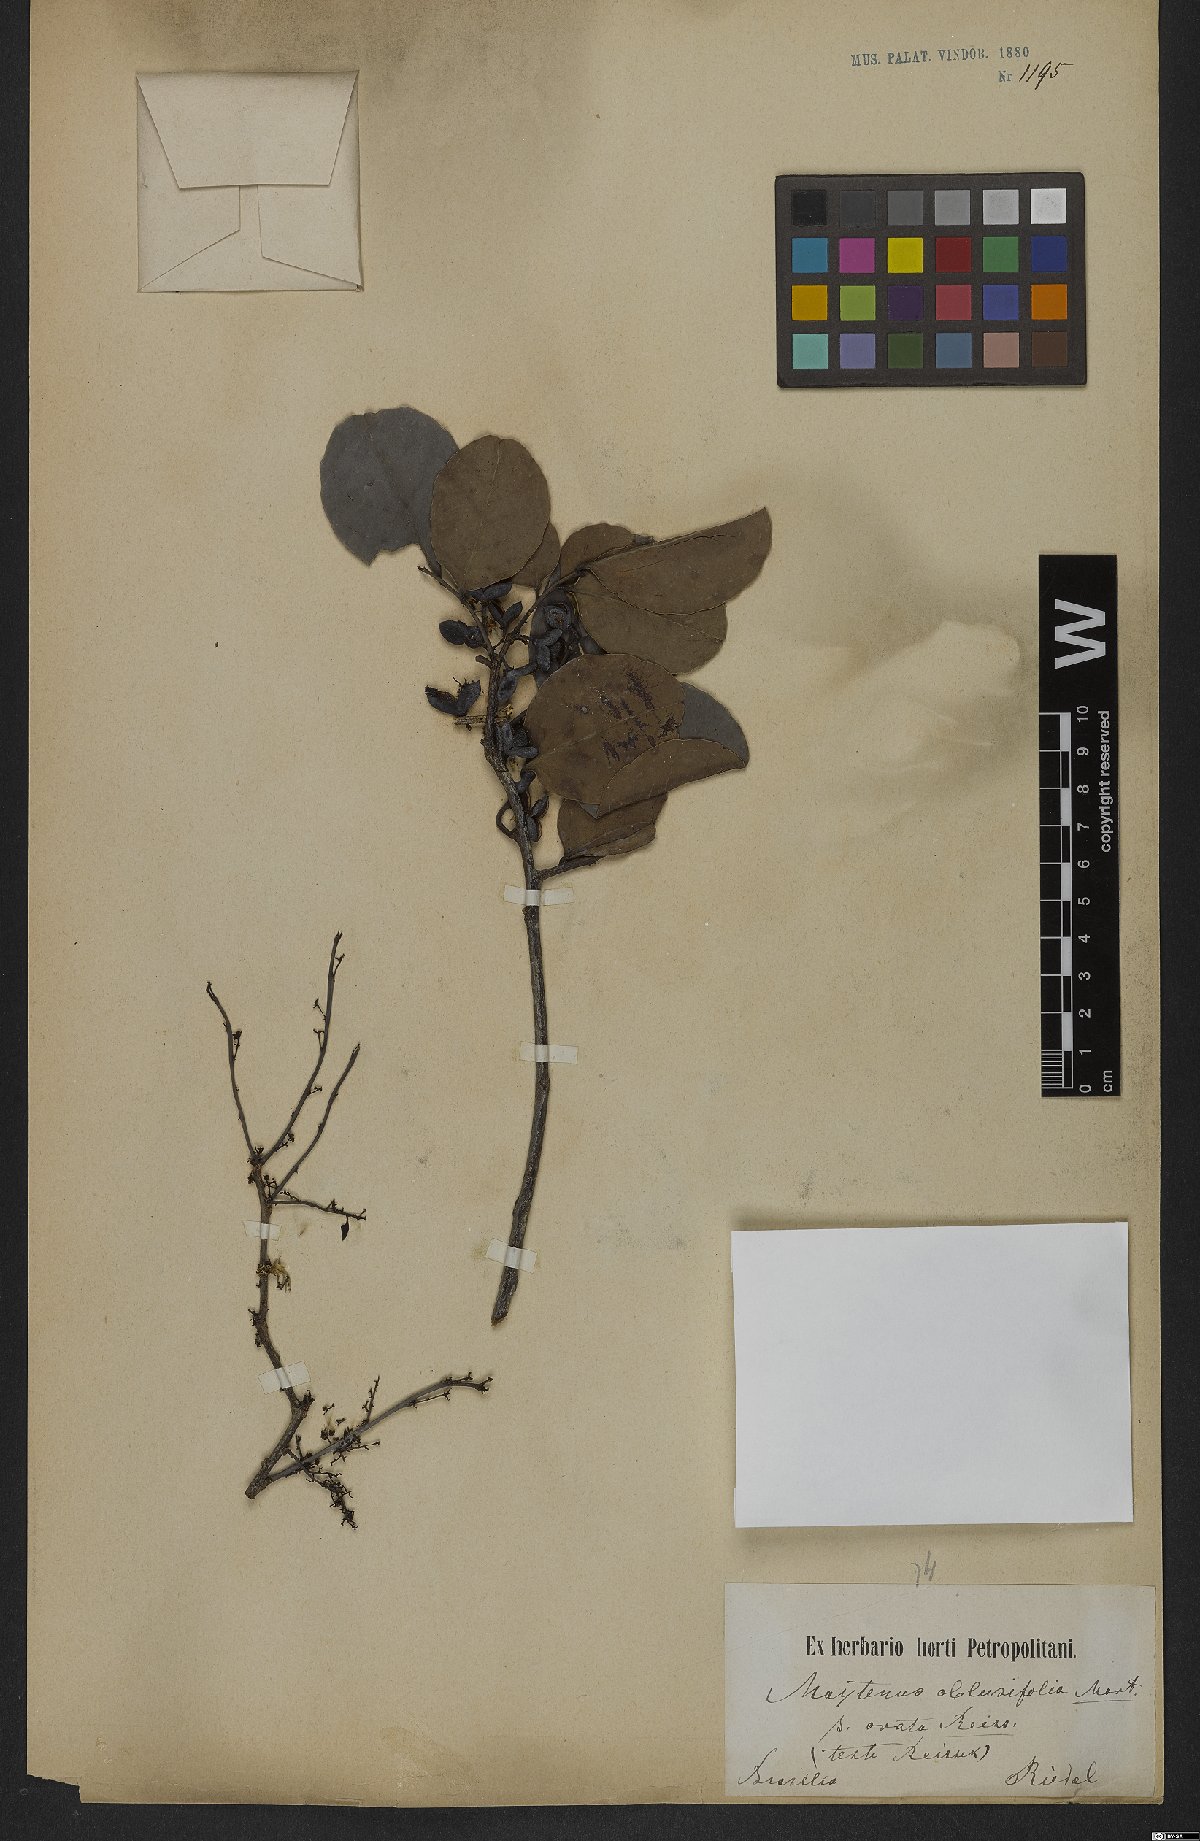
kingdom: Plantae
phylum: Tracheophyta
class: Magnoliopsida
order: Celastrales
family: Celastraceae
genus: Monteverdia
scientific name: Monteverdia obtusifolia
